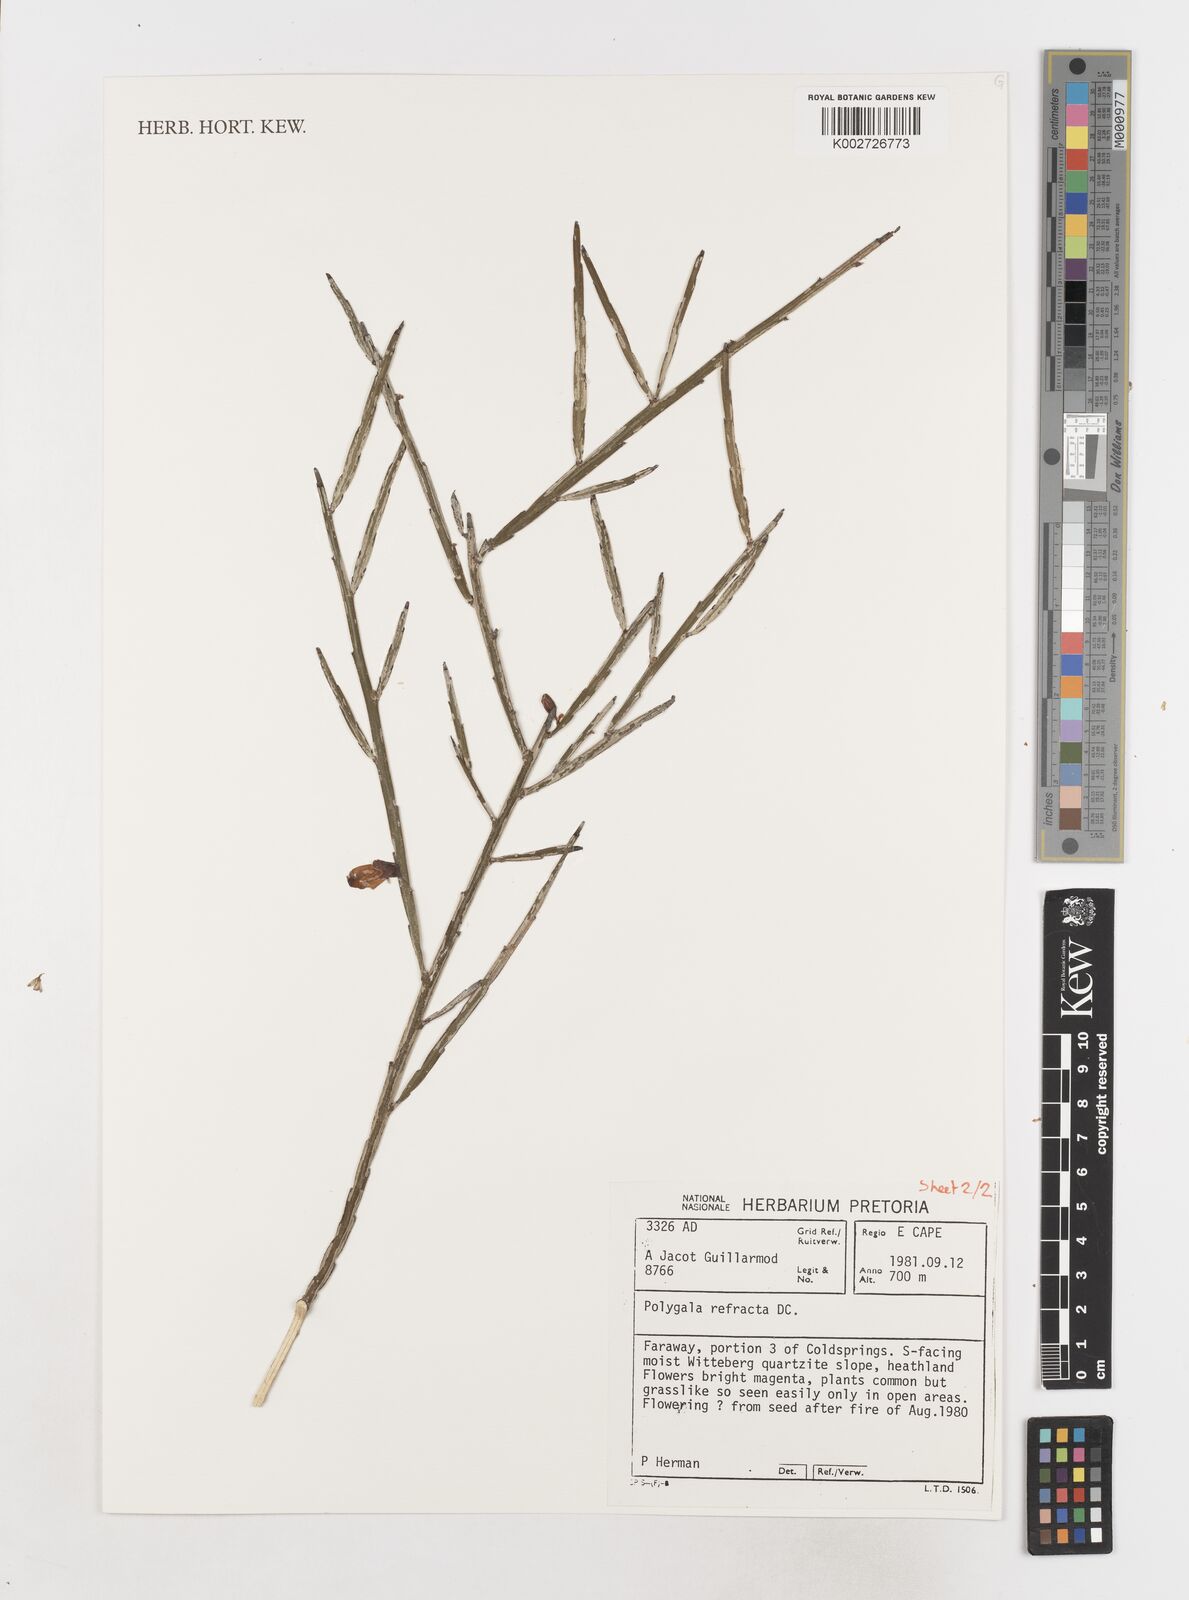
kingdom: Plantae
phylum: Tracheophyta
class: Magnoliopsida
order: Fabales
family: Polygalaceae
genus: Polygala
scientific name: Polygala refracta
